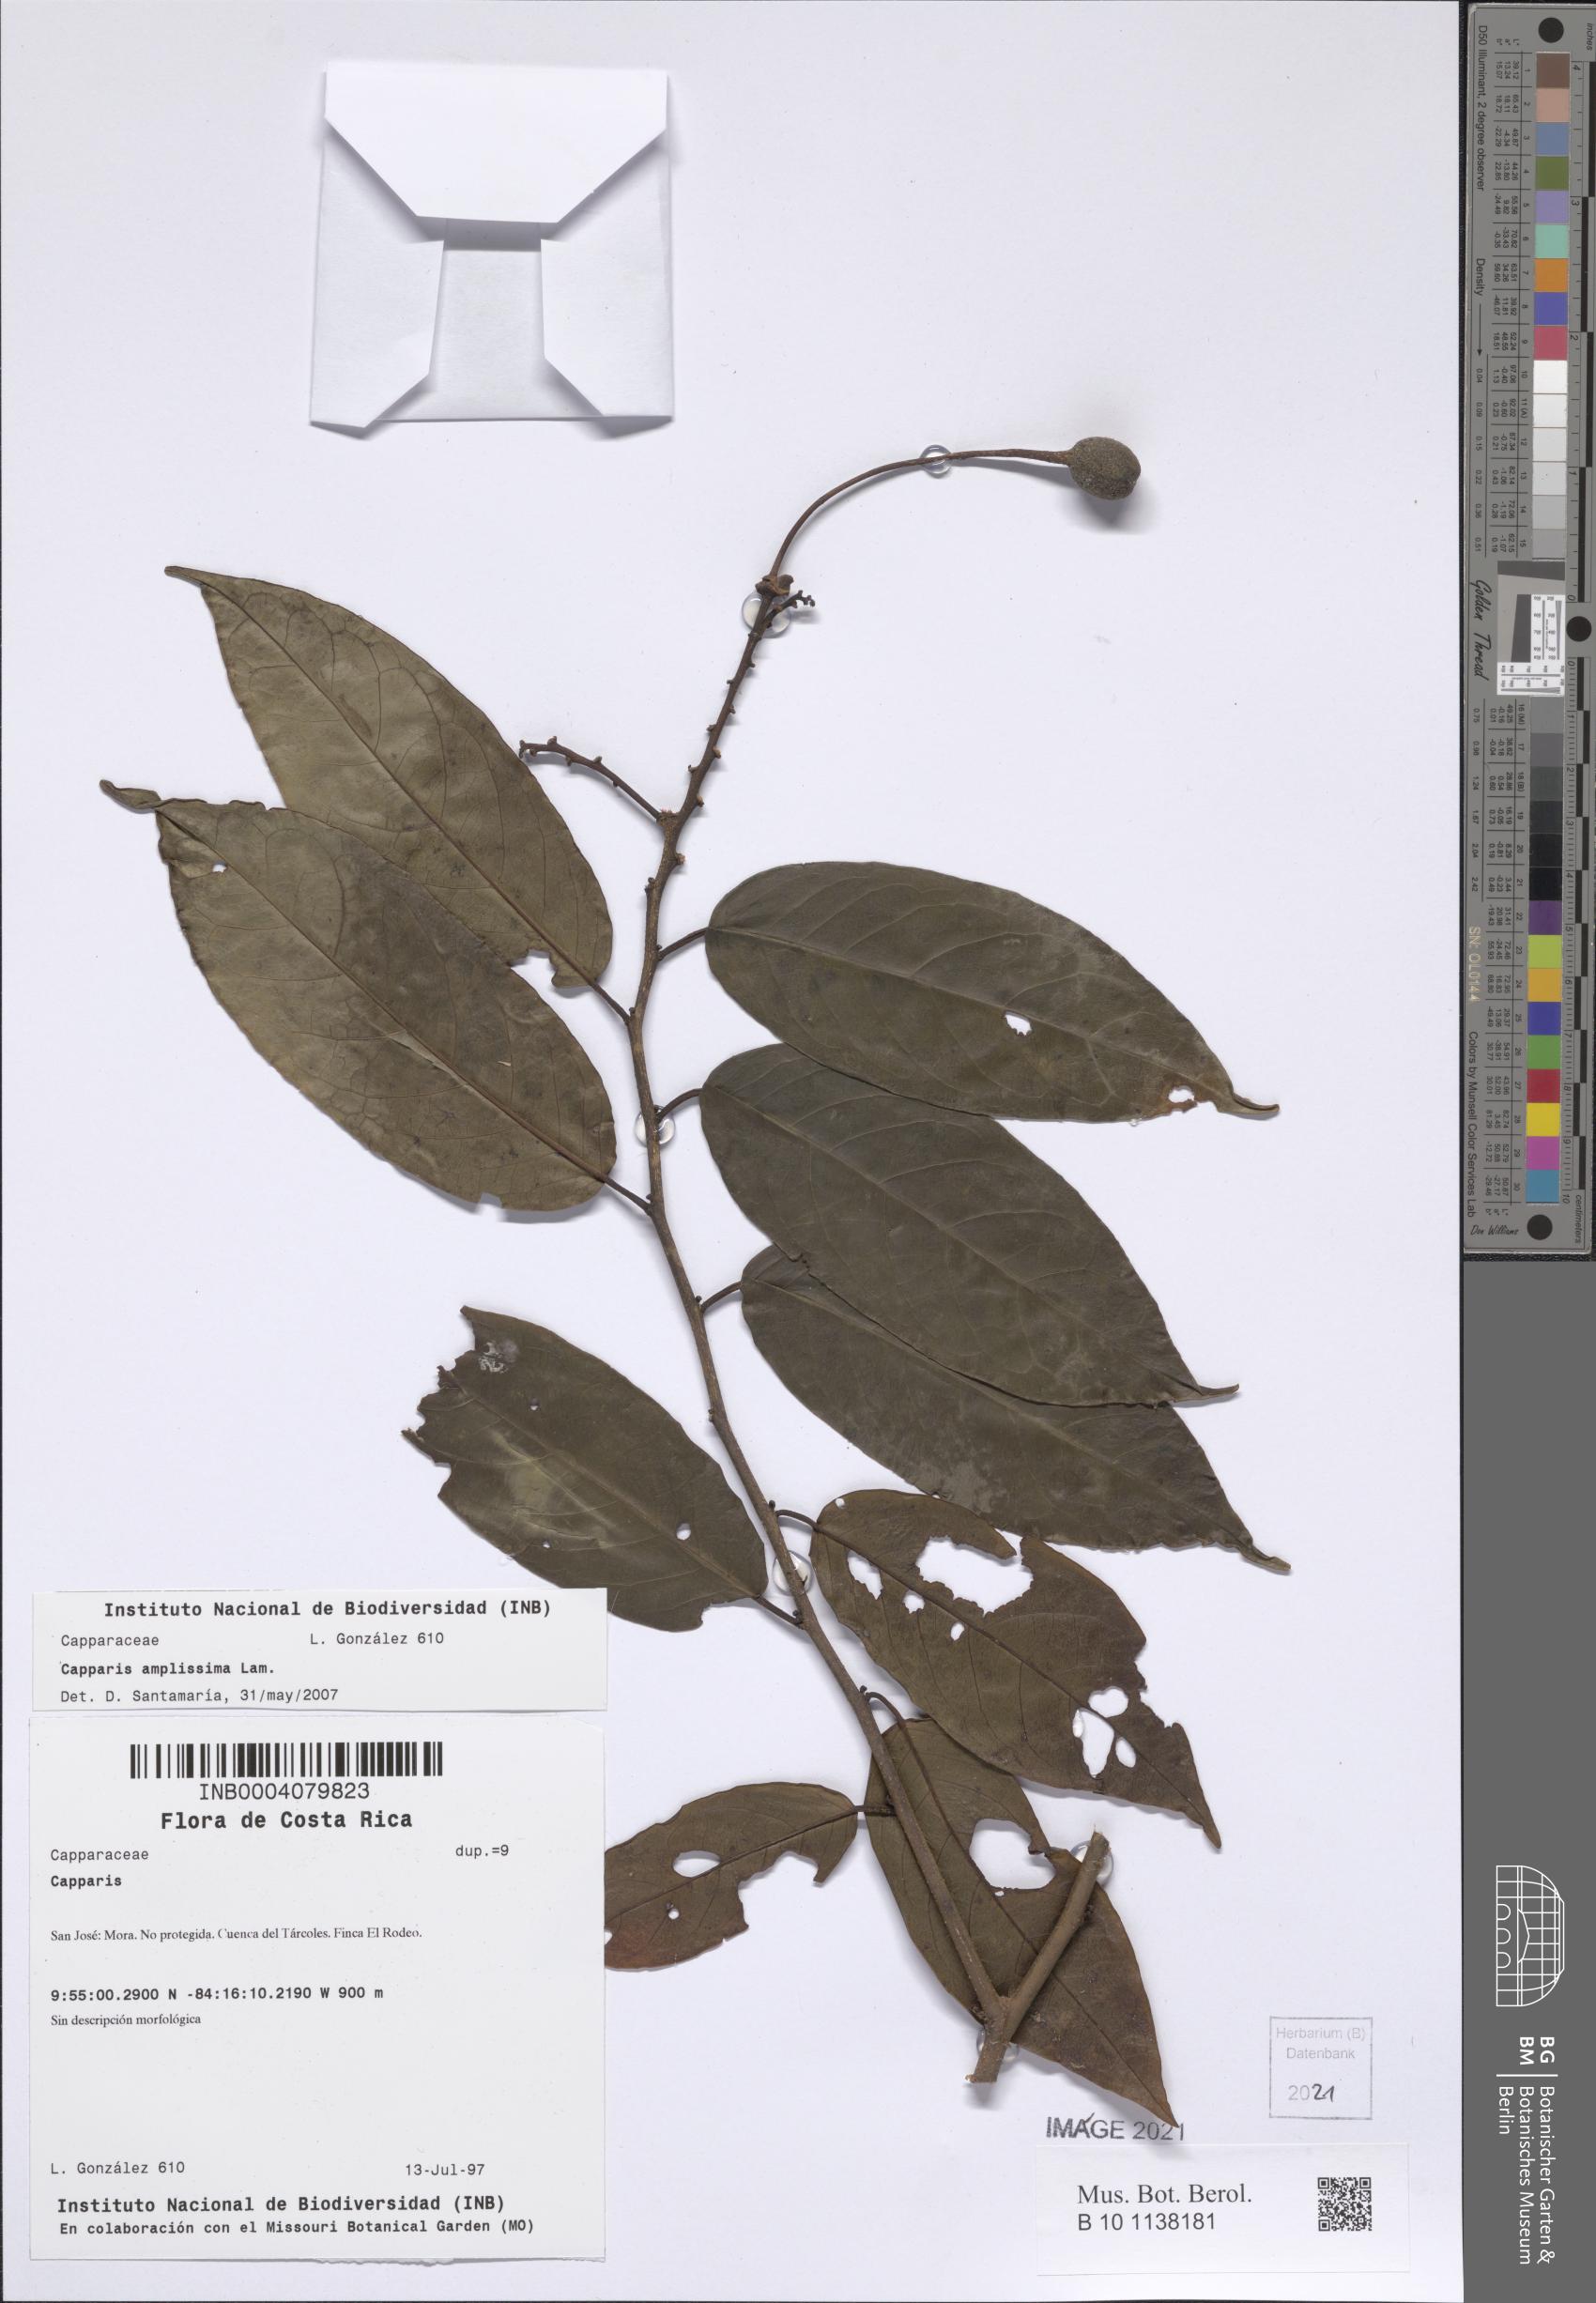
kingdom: Plantae
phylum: Tracheophyta
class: Magnoliopsida
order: Brassicales
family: Capparaceae
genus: Cynophalla
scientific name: Cynophalla amplissima
